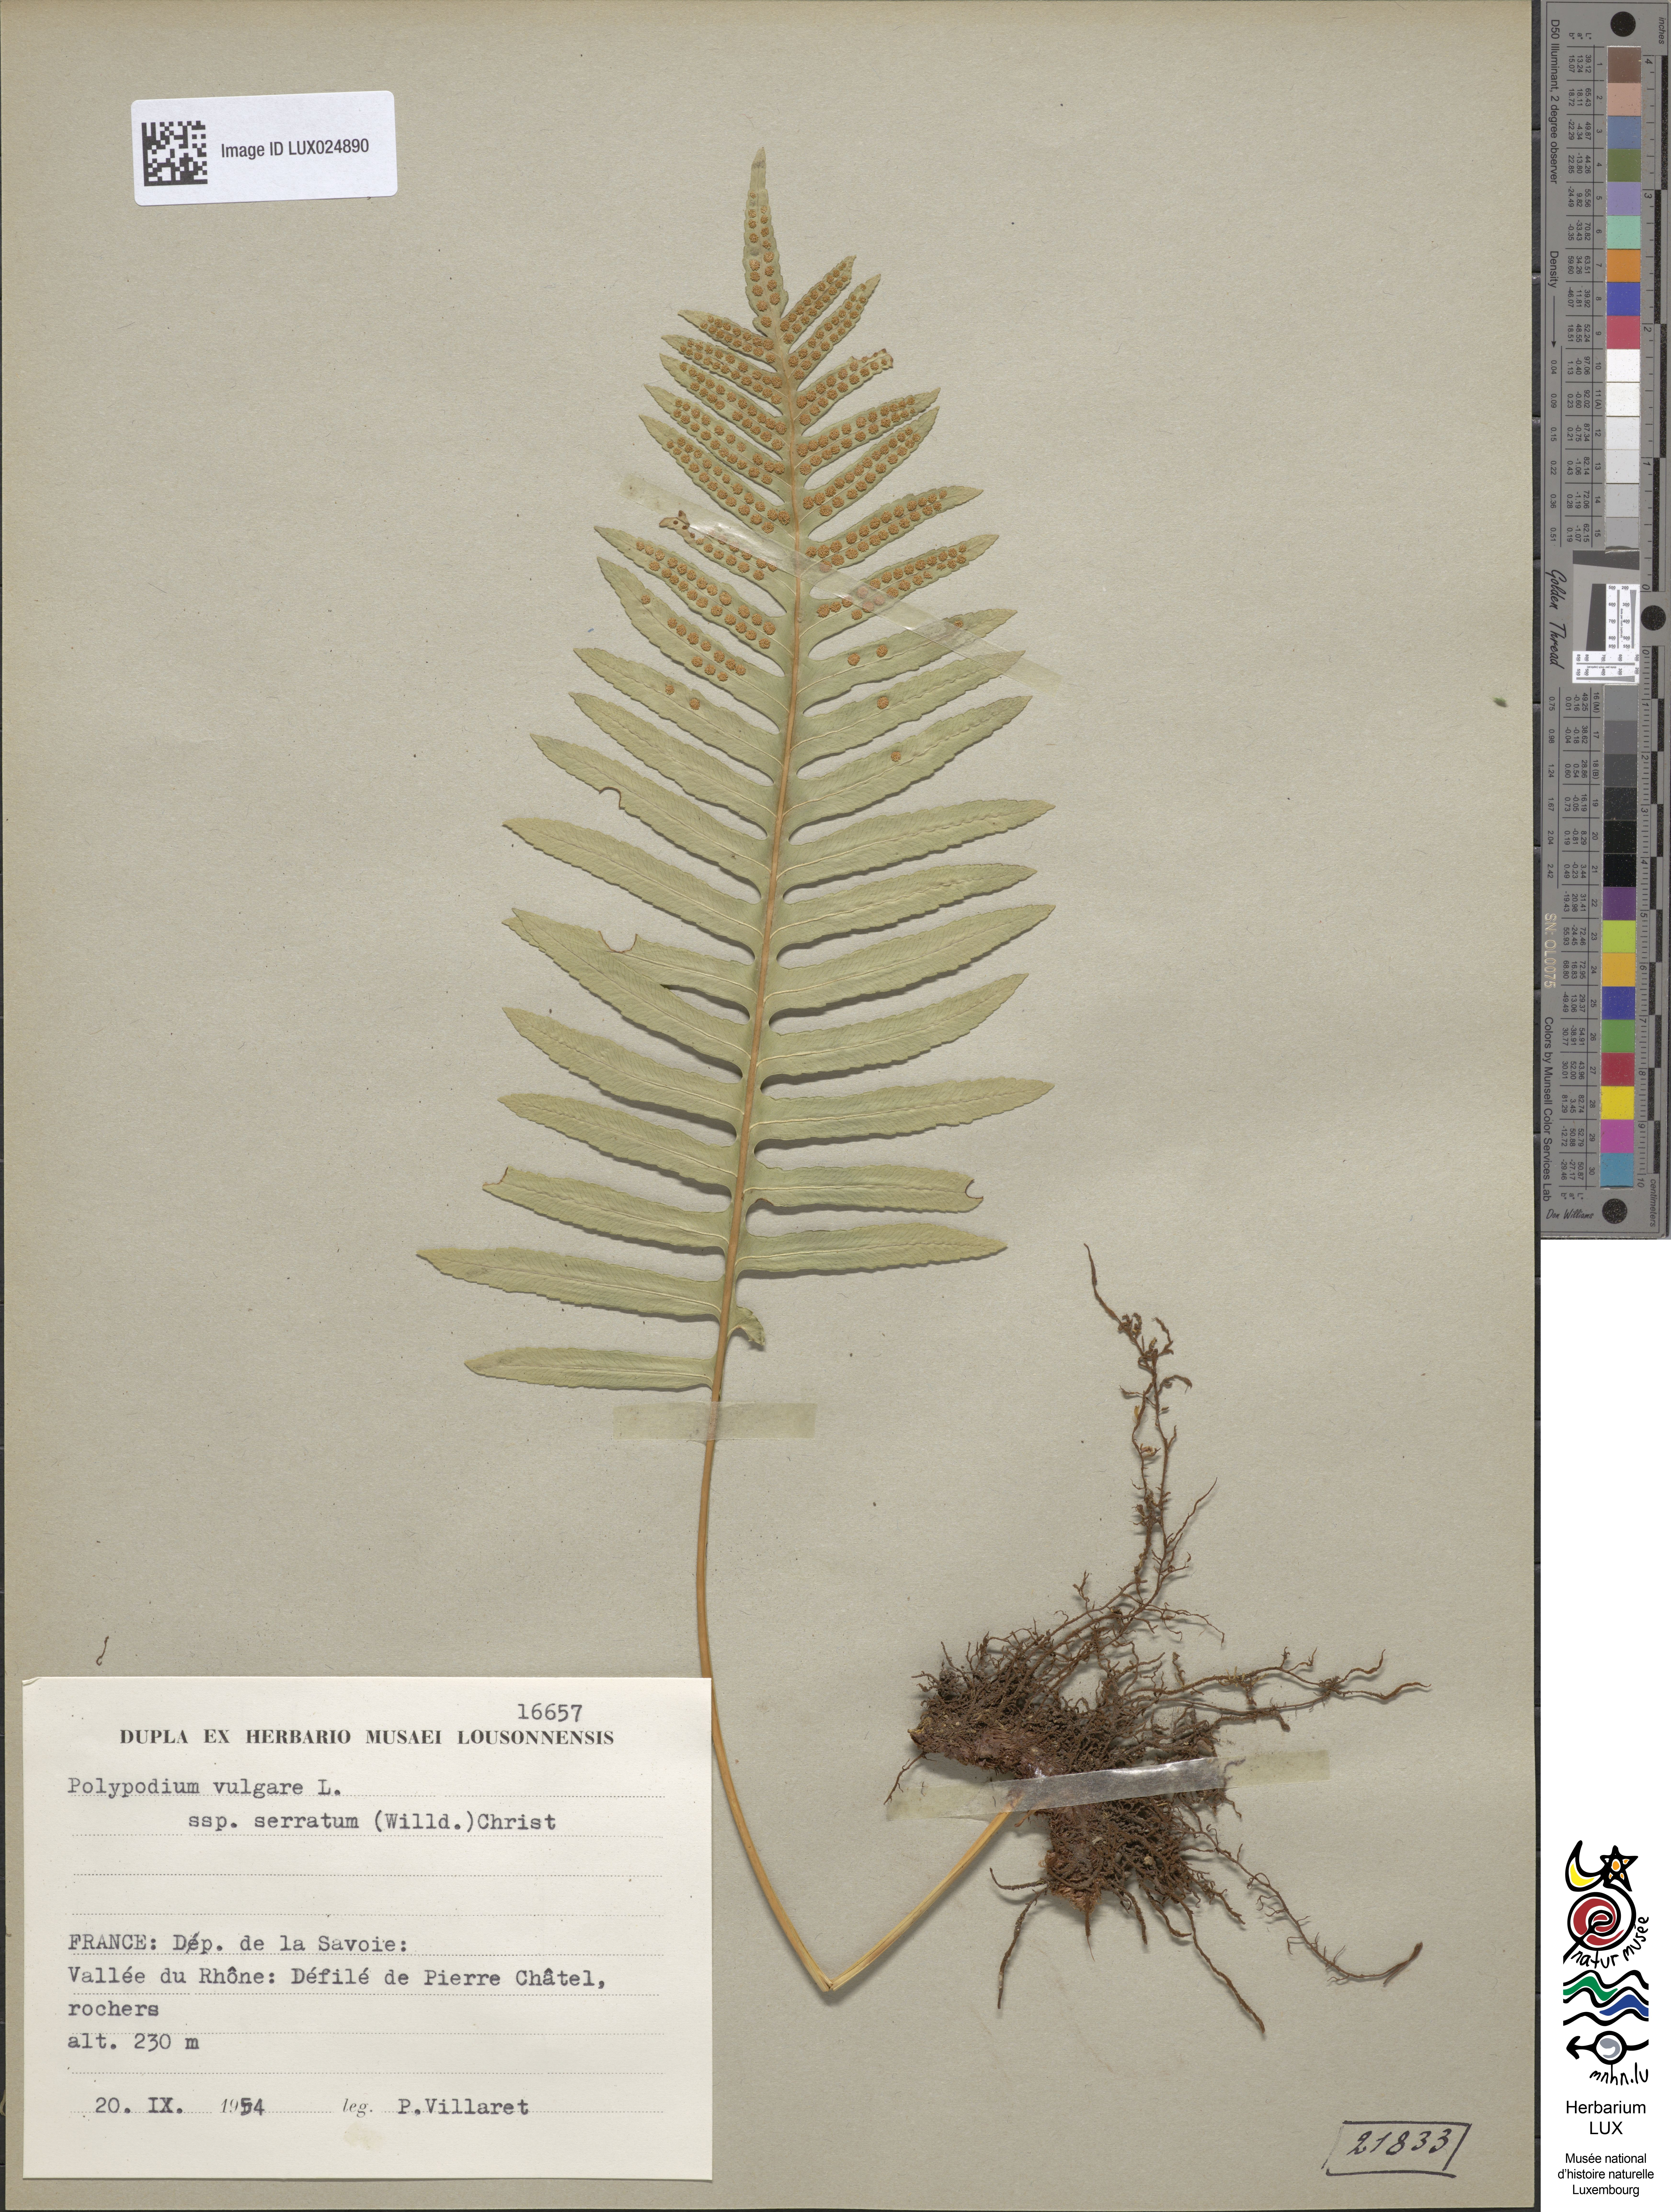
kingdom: Plantae
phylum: Tracheophyta
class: Polypodiopsida
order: Polypodiales
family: Polypodiaceae
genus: Polypodium
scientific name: Polypodium cambricum
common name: Southern polypody
